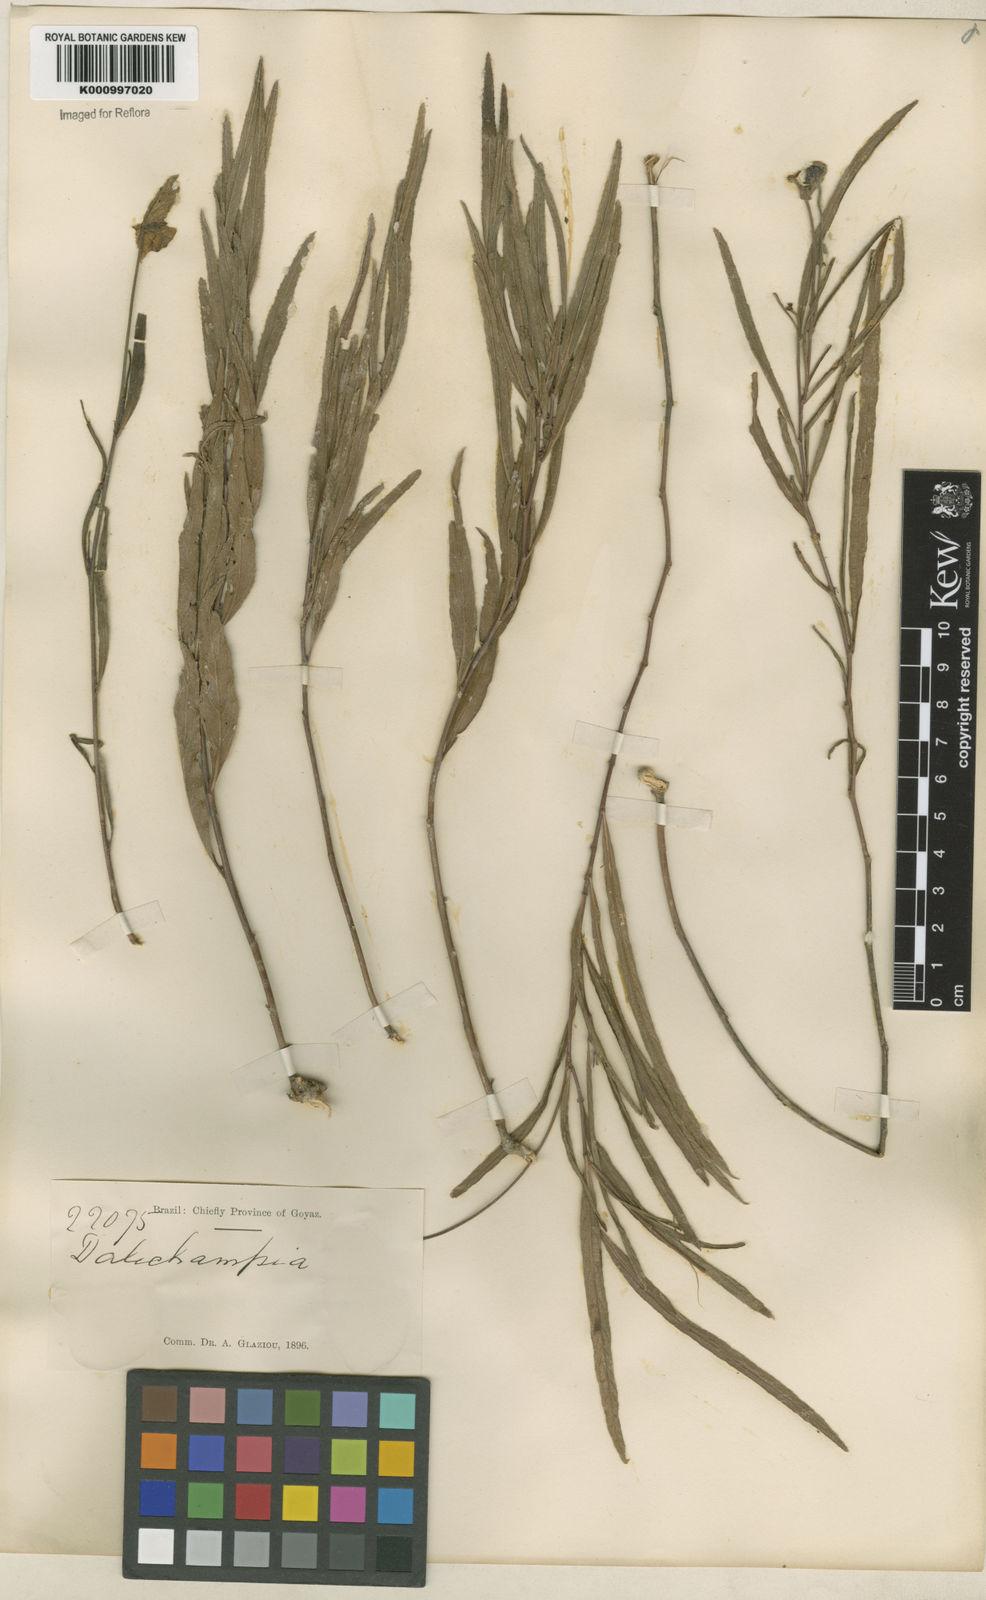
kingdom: Plantae
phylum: Tracheophyta
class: Magnoliopsida
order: Malpighiales
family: Euphorbiaceae
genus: Dalechampia
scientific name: Dalechampia caperonioides
